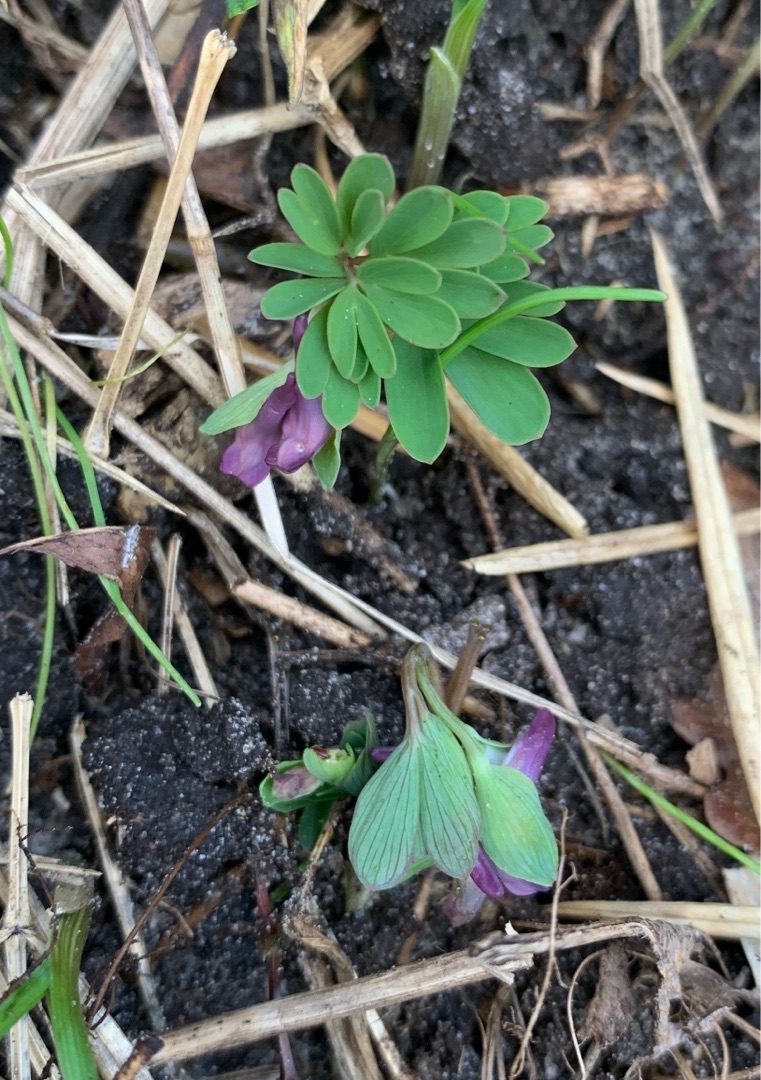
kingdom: Plantae
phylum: Tracheophyta
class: Magnoliopsida
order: Ranunculales
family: Papaveraceae
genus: Corydalis
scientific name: Corydalis intermedia
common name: Liden lærkespore
